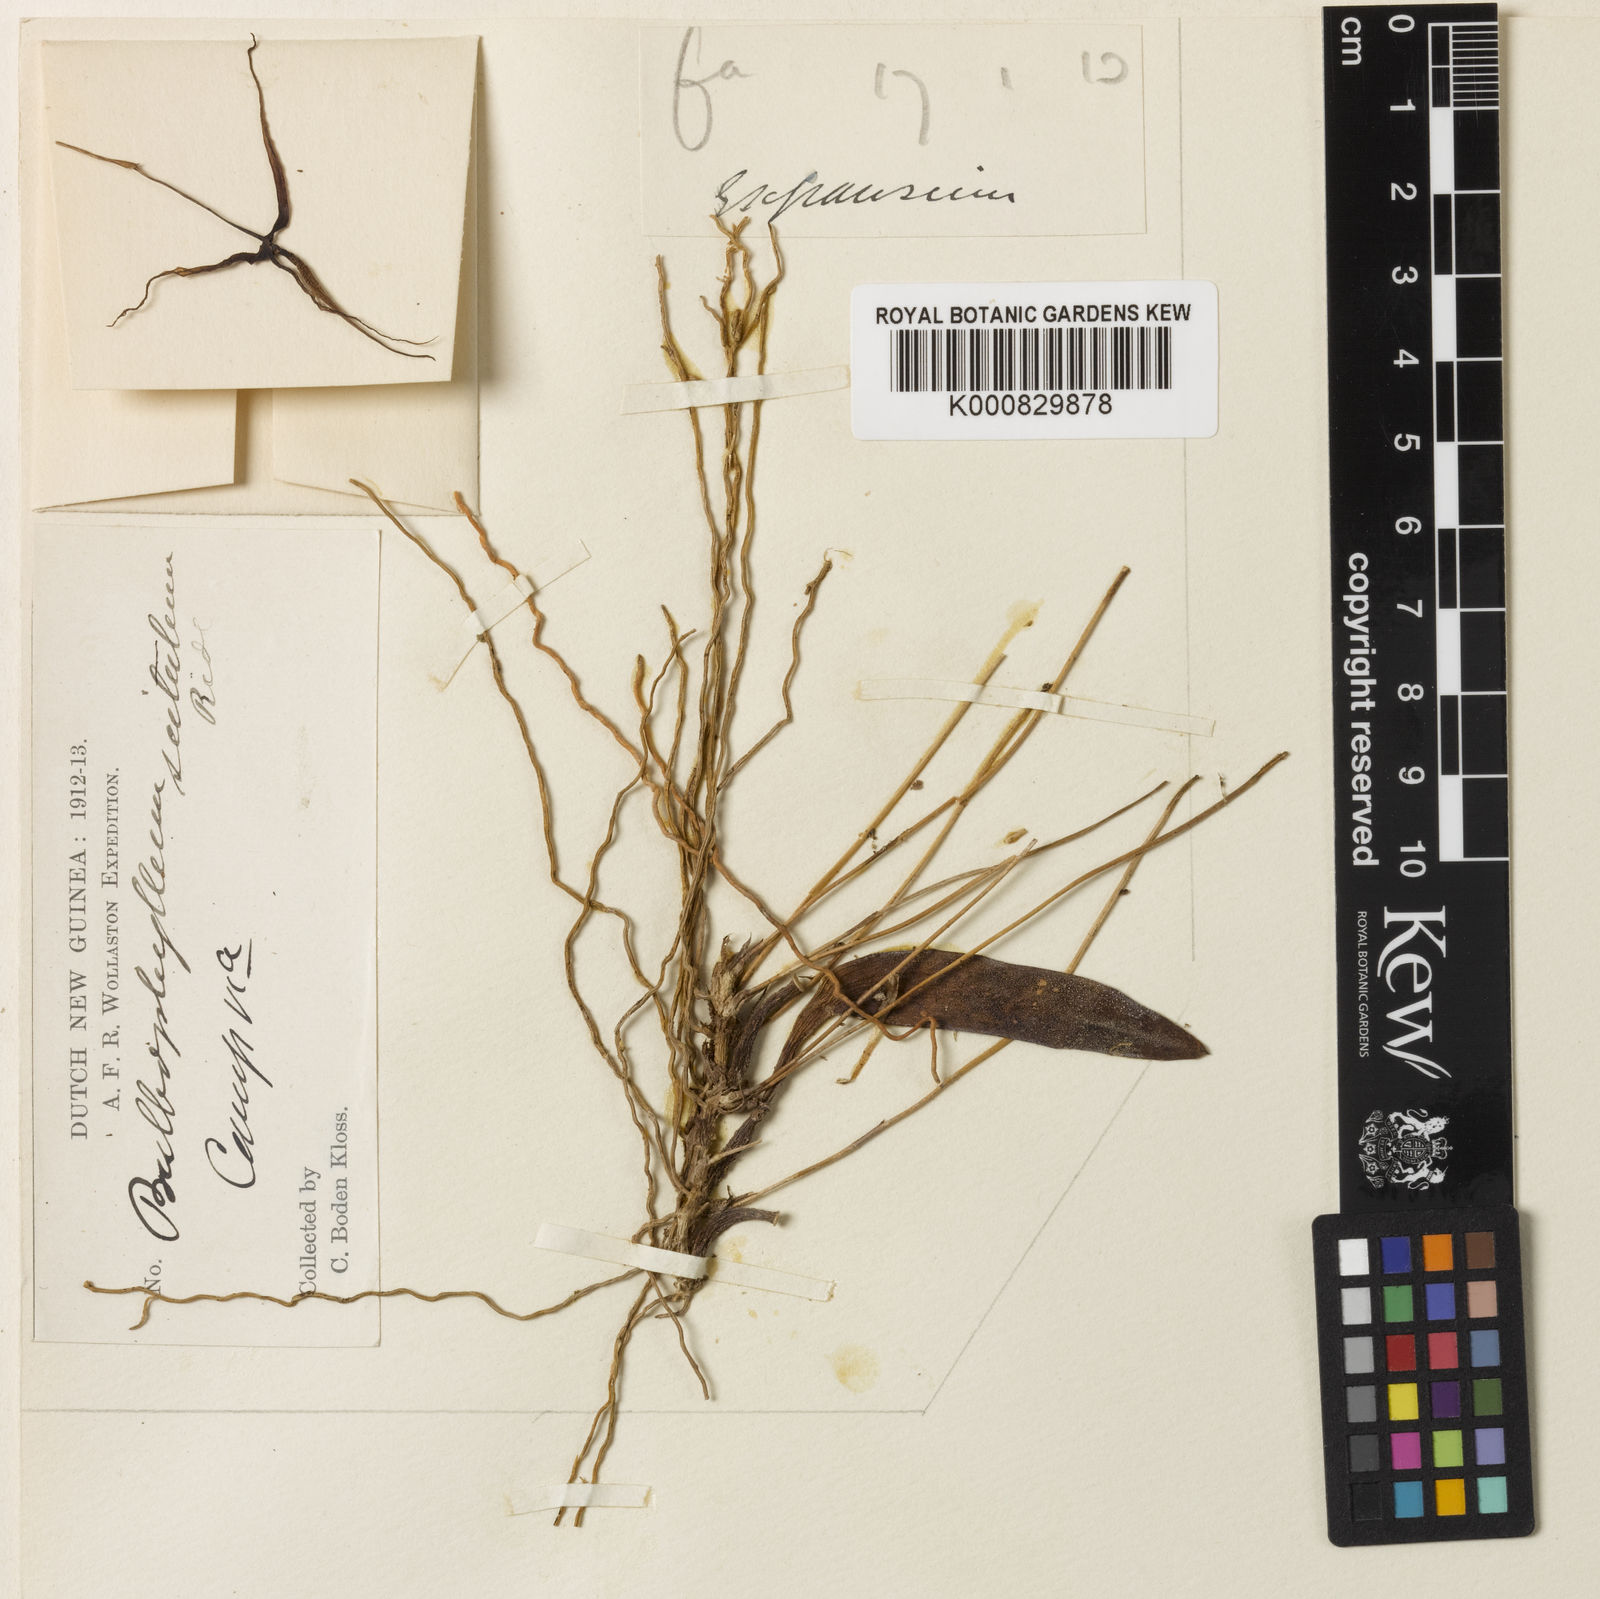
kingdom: Plantae
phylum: Tracheophyta
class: Liliopsida
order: Asparagales
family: Orchidaceae
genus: Bulbophyllum
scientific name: Bulbophyllum speciosum
